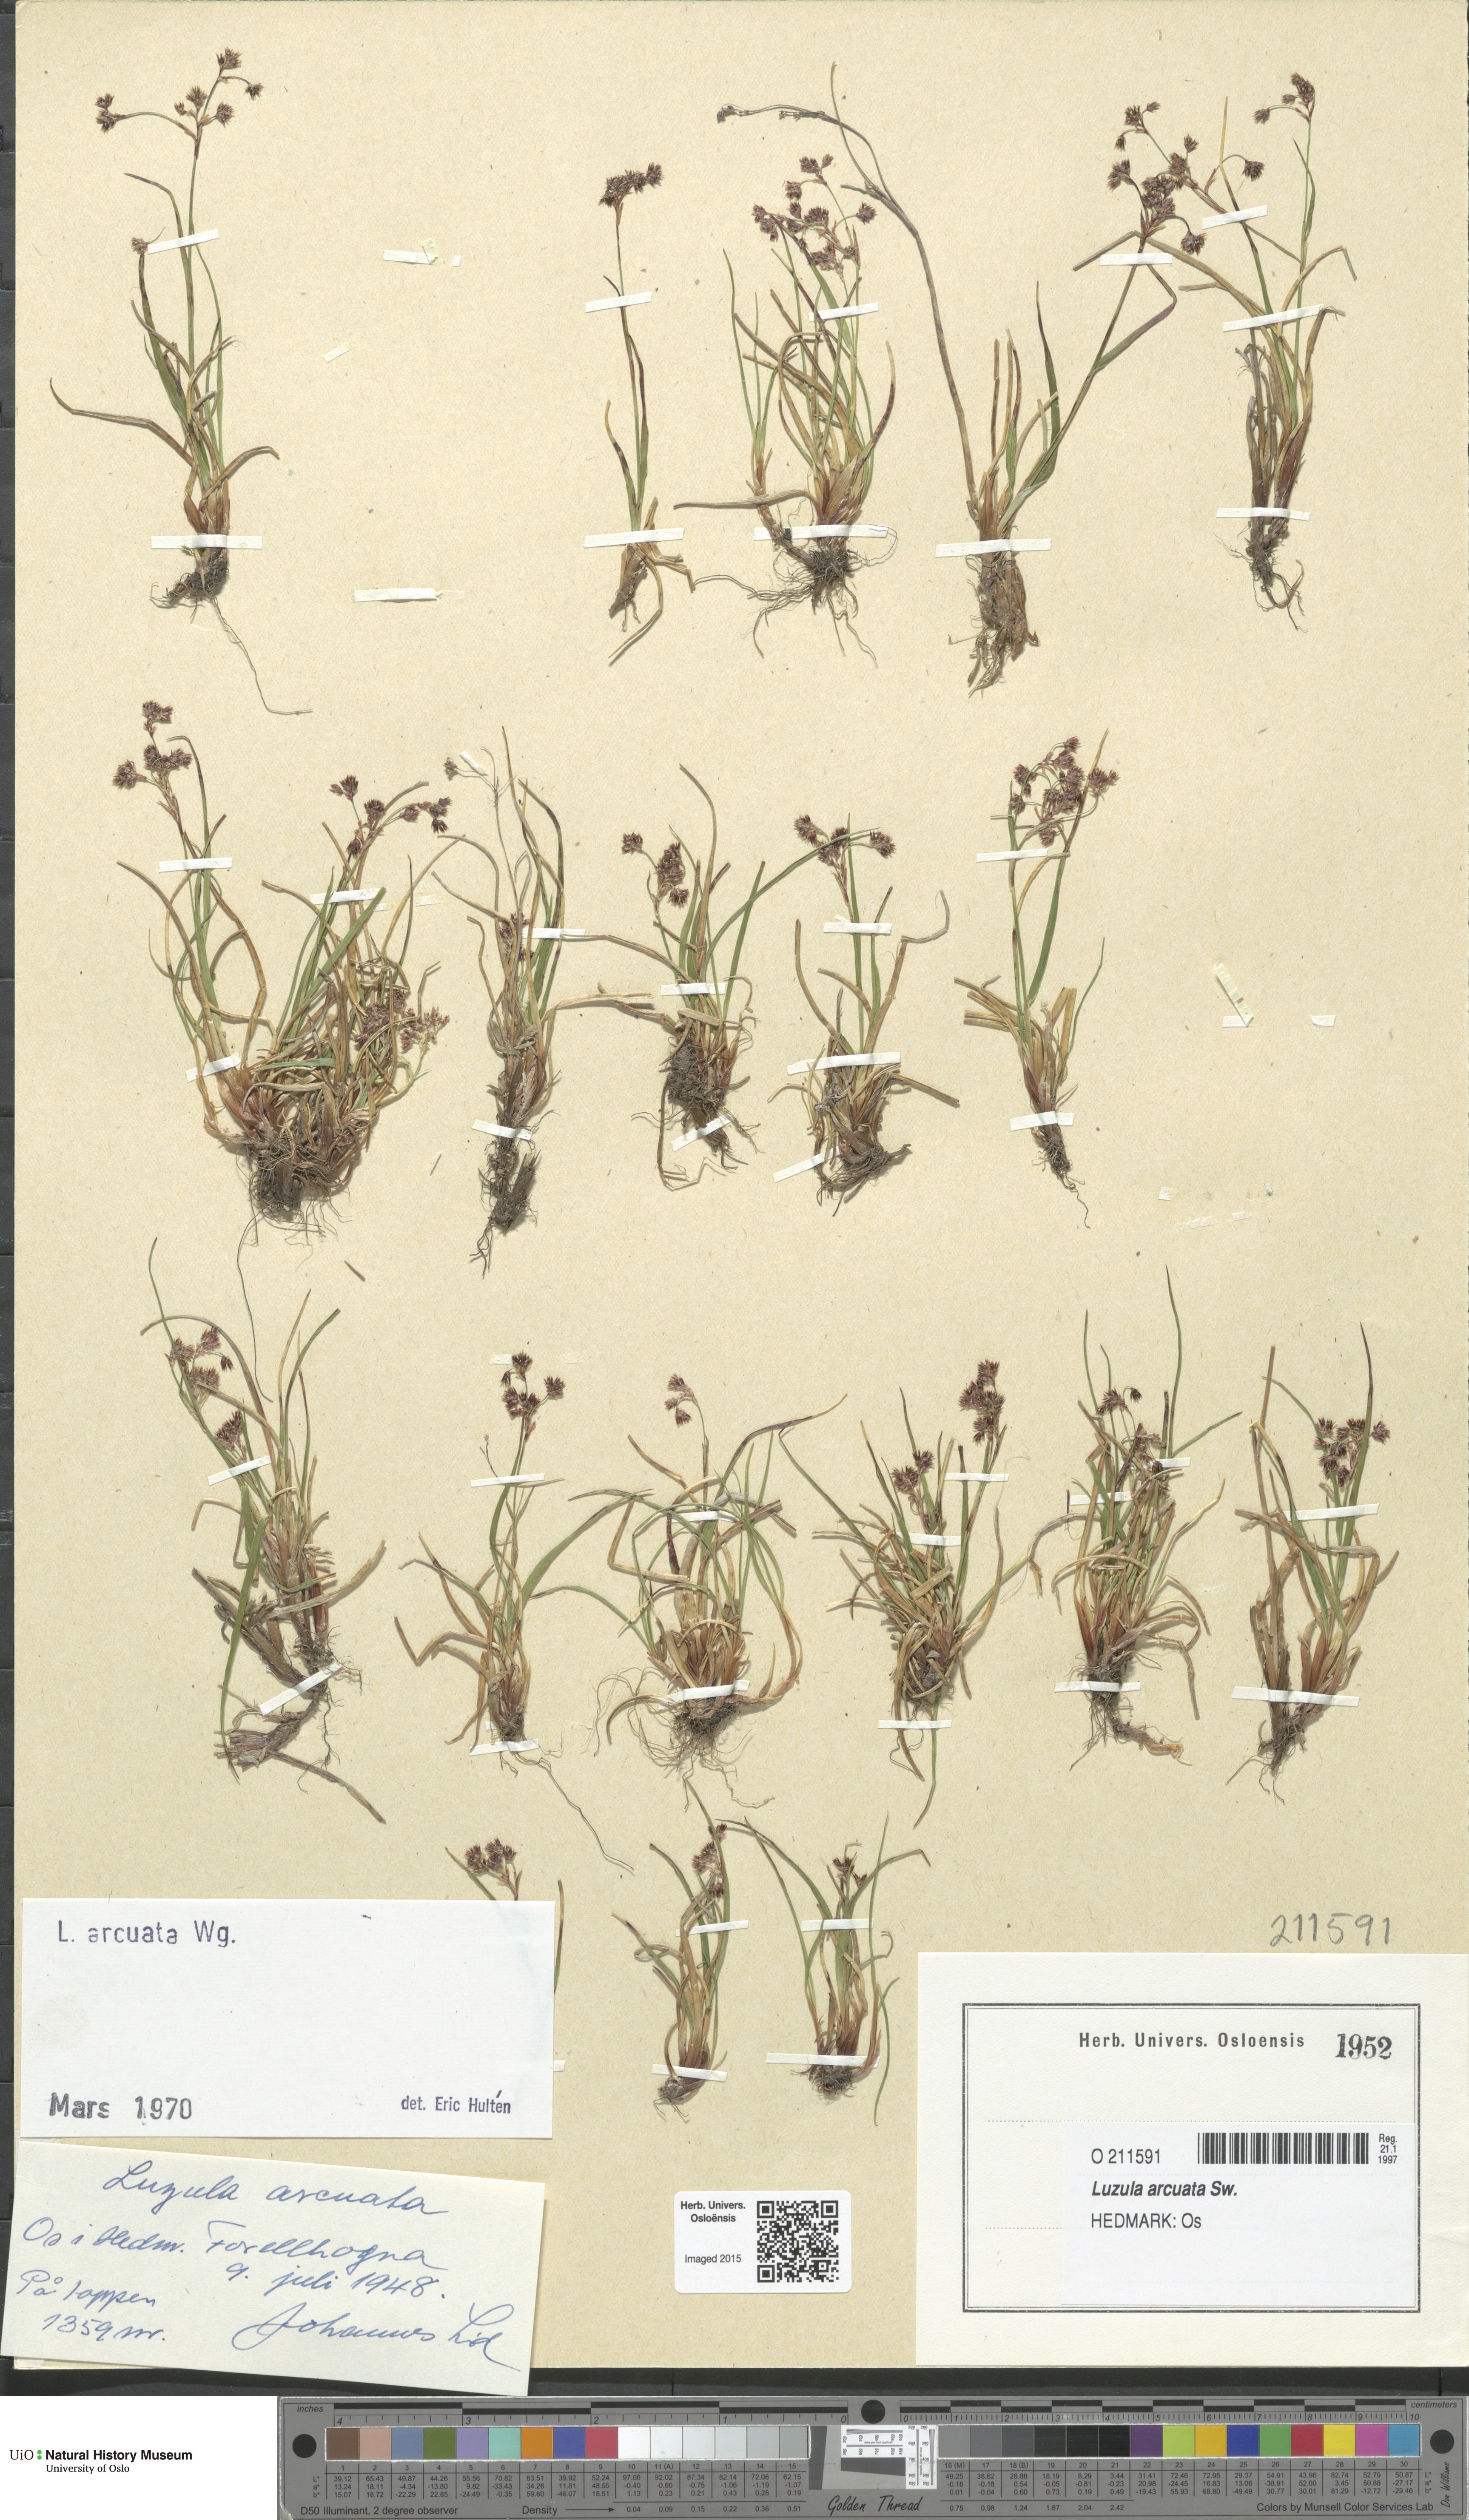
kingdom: Plantae
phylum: Tracheophyta
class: Liliopsida
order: Poales
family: Juncaceae
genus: Luzula
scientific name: Luzula arcuata
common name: Curved wood-rush
